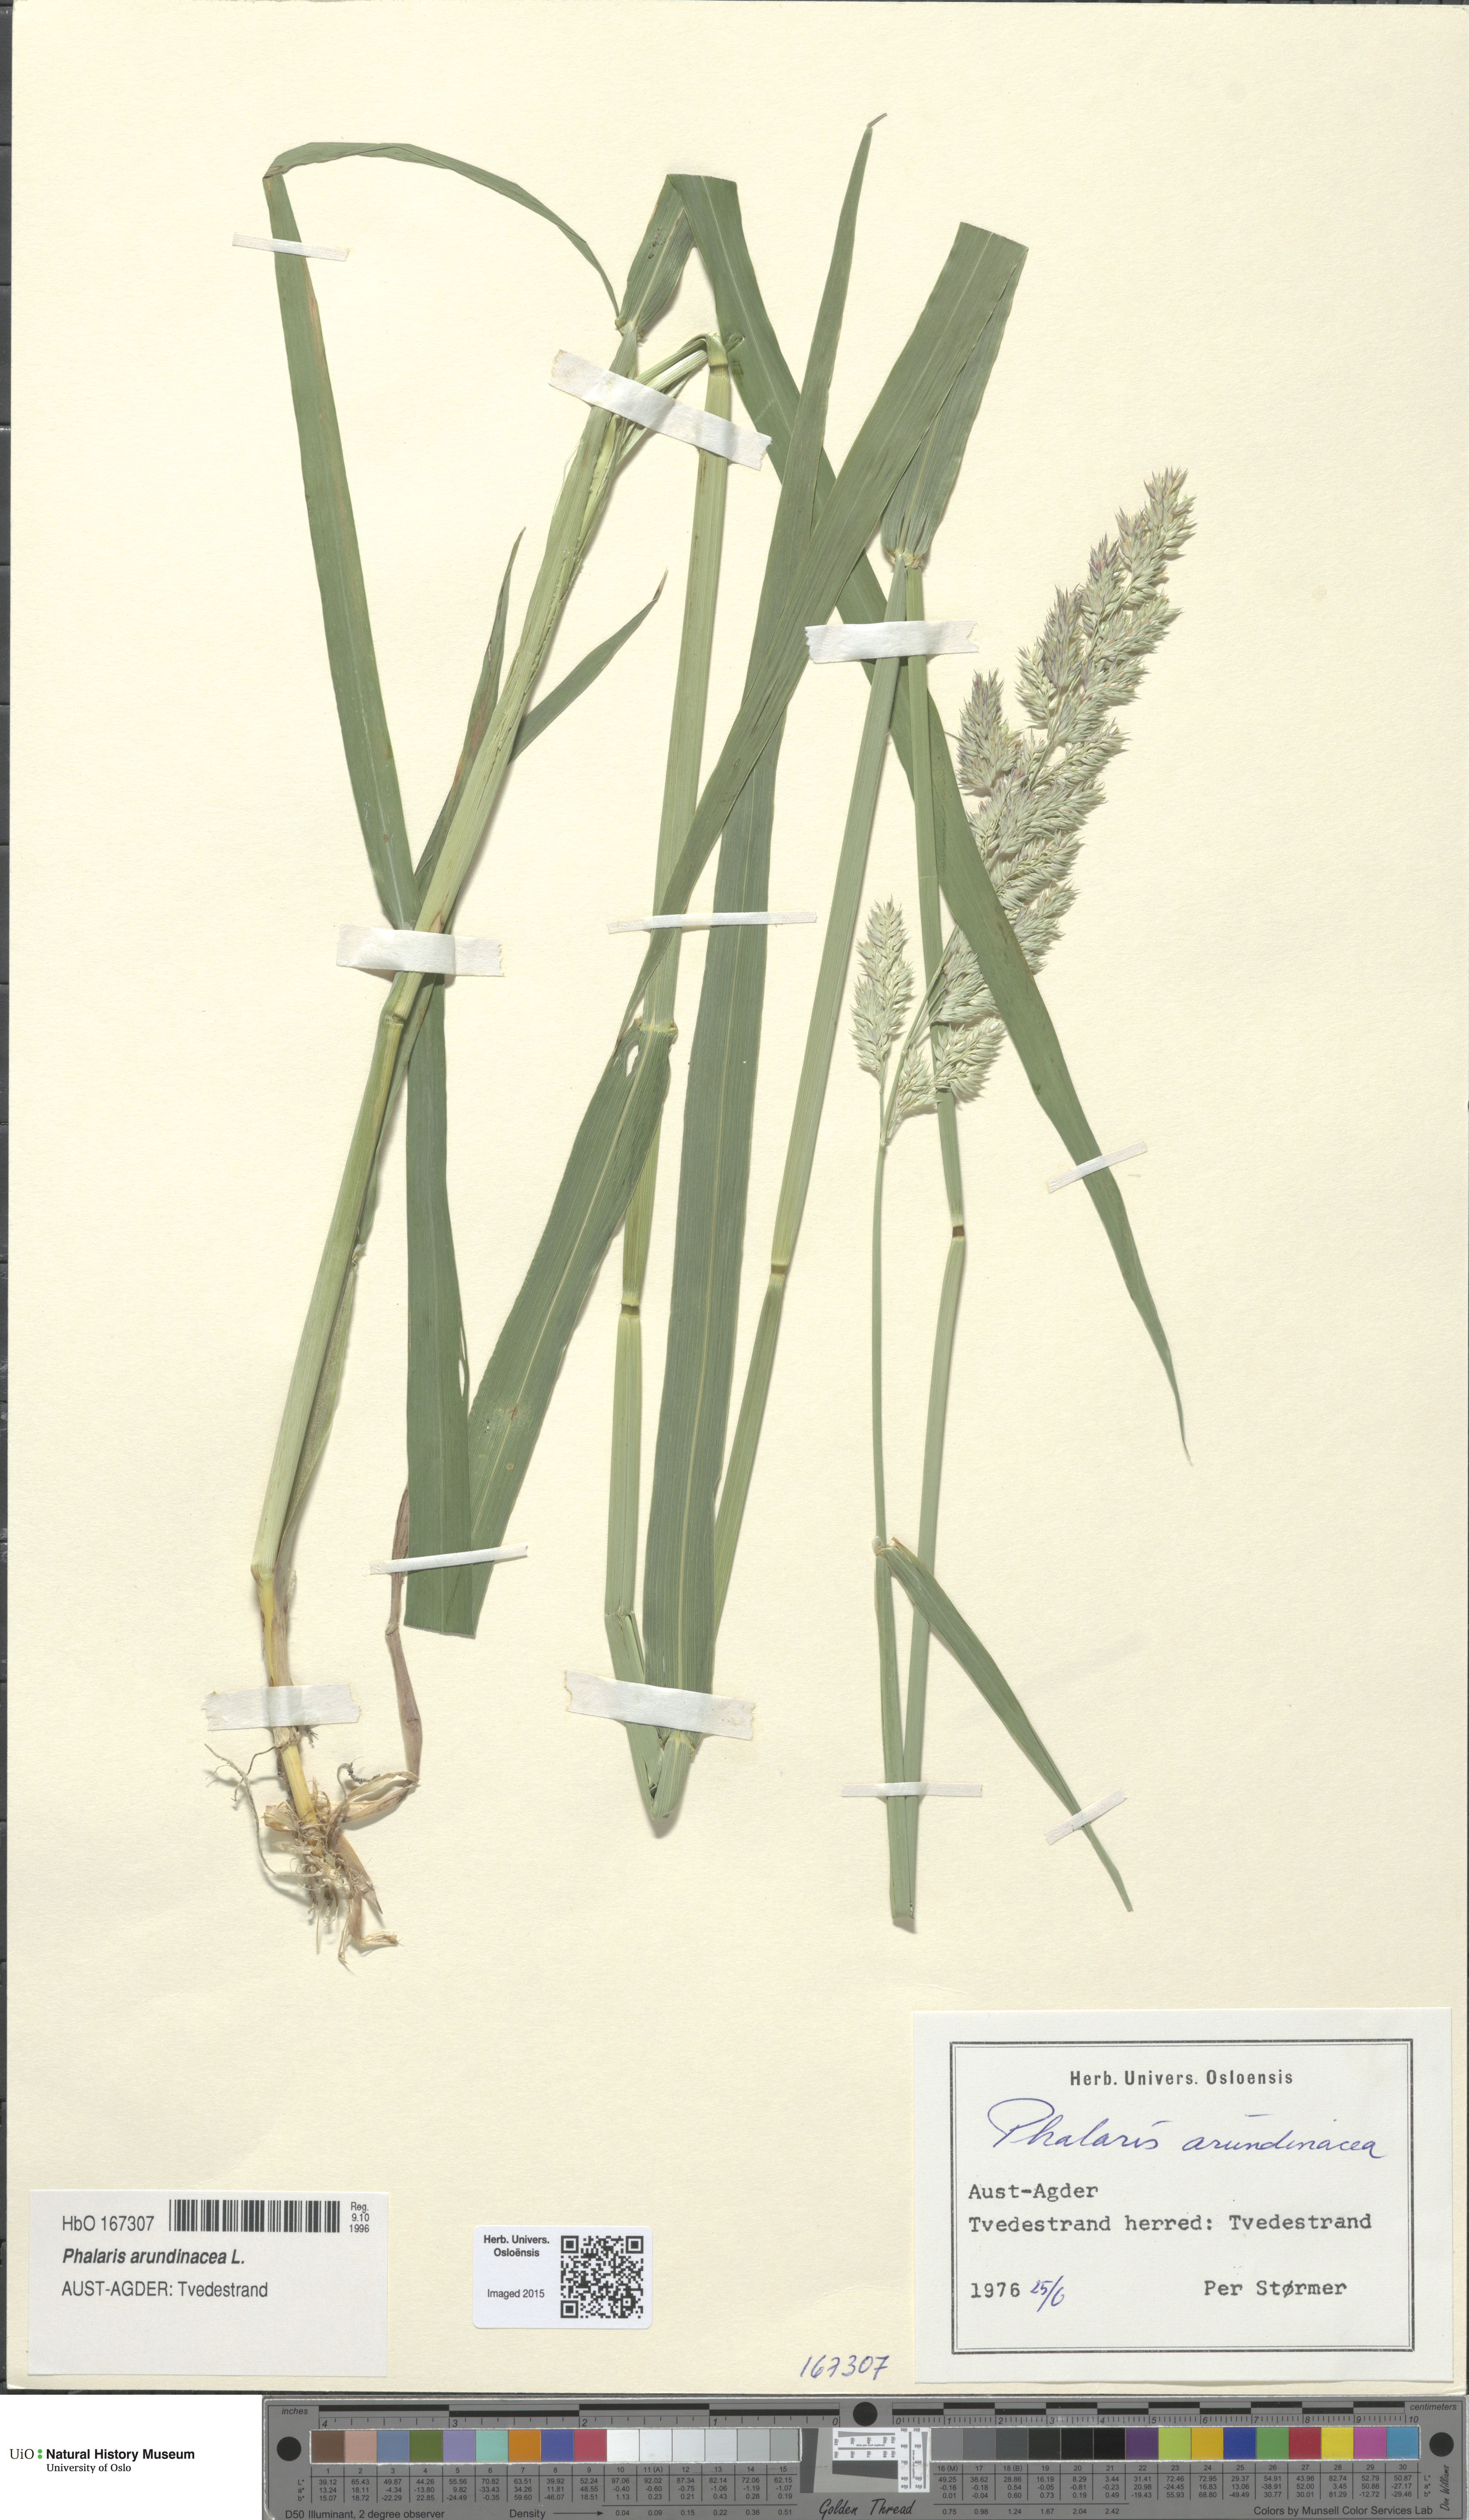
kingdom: Plantae
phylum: Tracheophyta
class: Liliopsida
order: Poales
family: Poaceae
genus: Phalaris
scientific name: Phalaris arundinacea
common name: Reed canary-grass
